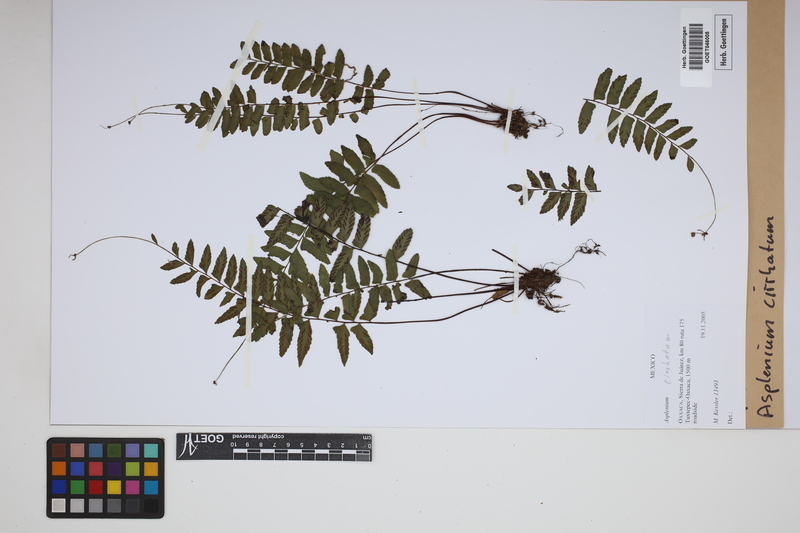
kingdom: Plantae
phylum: Tracheophyta
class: Polypodiopsida
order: Polypodiales
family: Aspleniaceae
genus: Asplenium
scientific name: Asplenium cirrhatum
